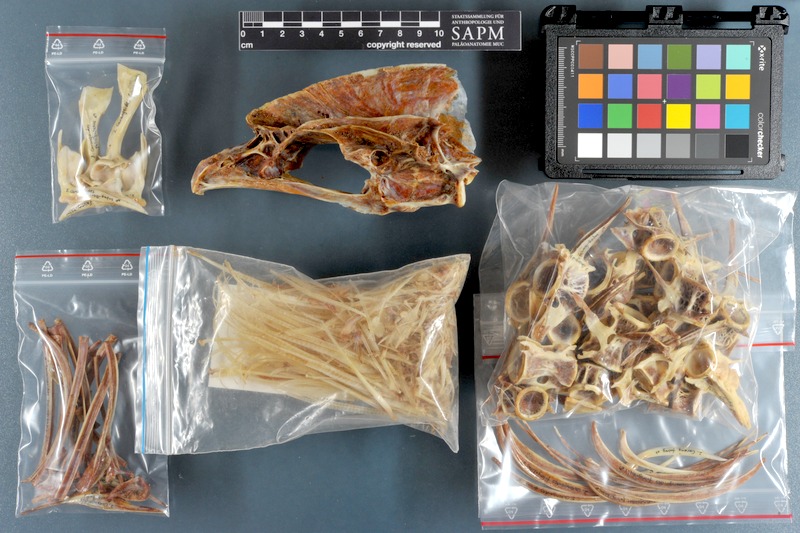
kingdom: Animalia
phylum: Chordata
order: Perciformes
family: Carangidae
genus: Carangoides
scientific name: Carangoides fulvoguttatus
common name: Yellowspotted trevally
